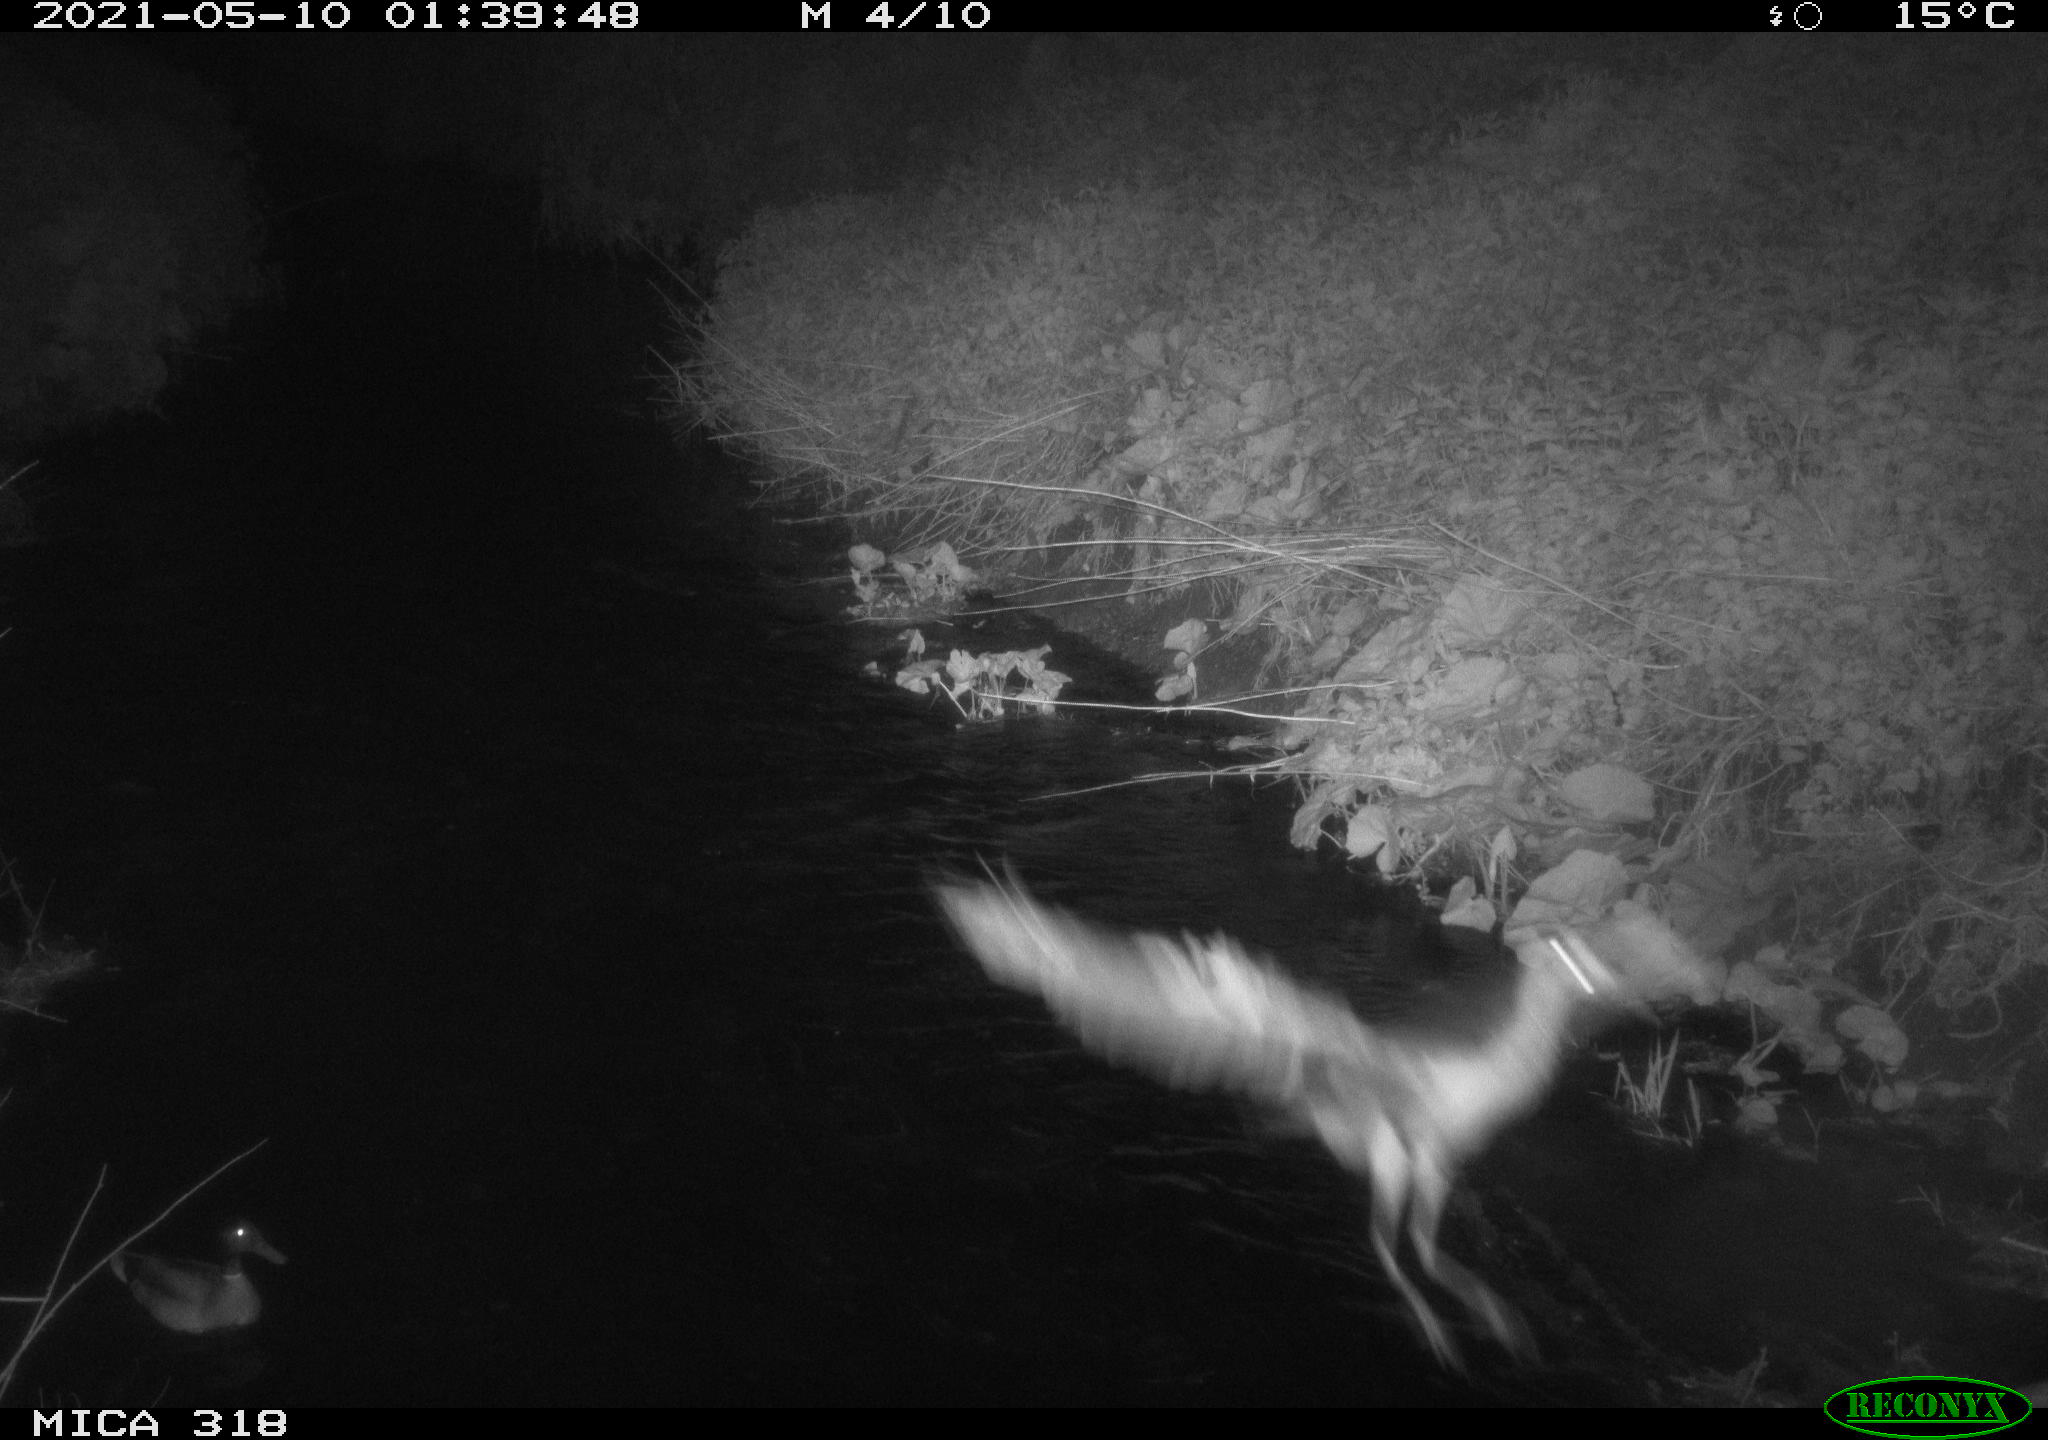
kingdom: Animalia
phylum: Chordata
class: Aves
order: Pelecaniformes
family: Ardeidae
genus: Ardea
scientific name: Ardea
